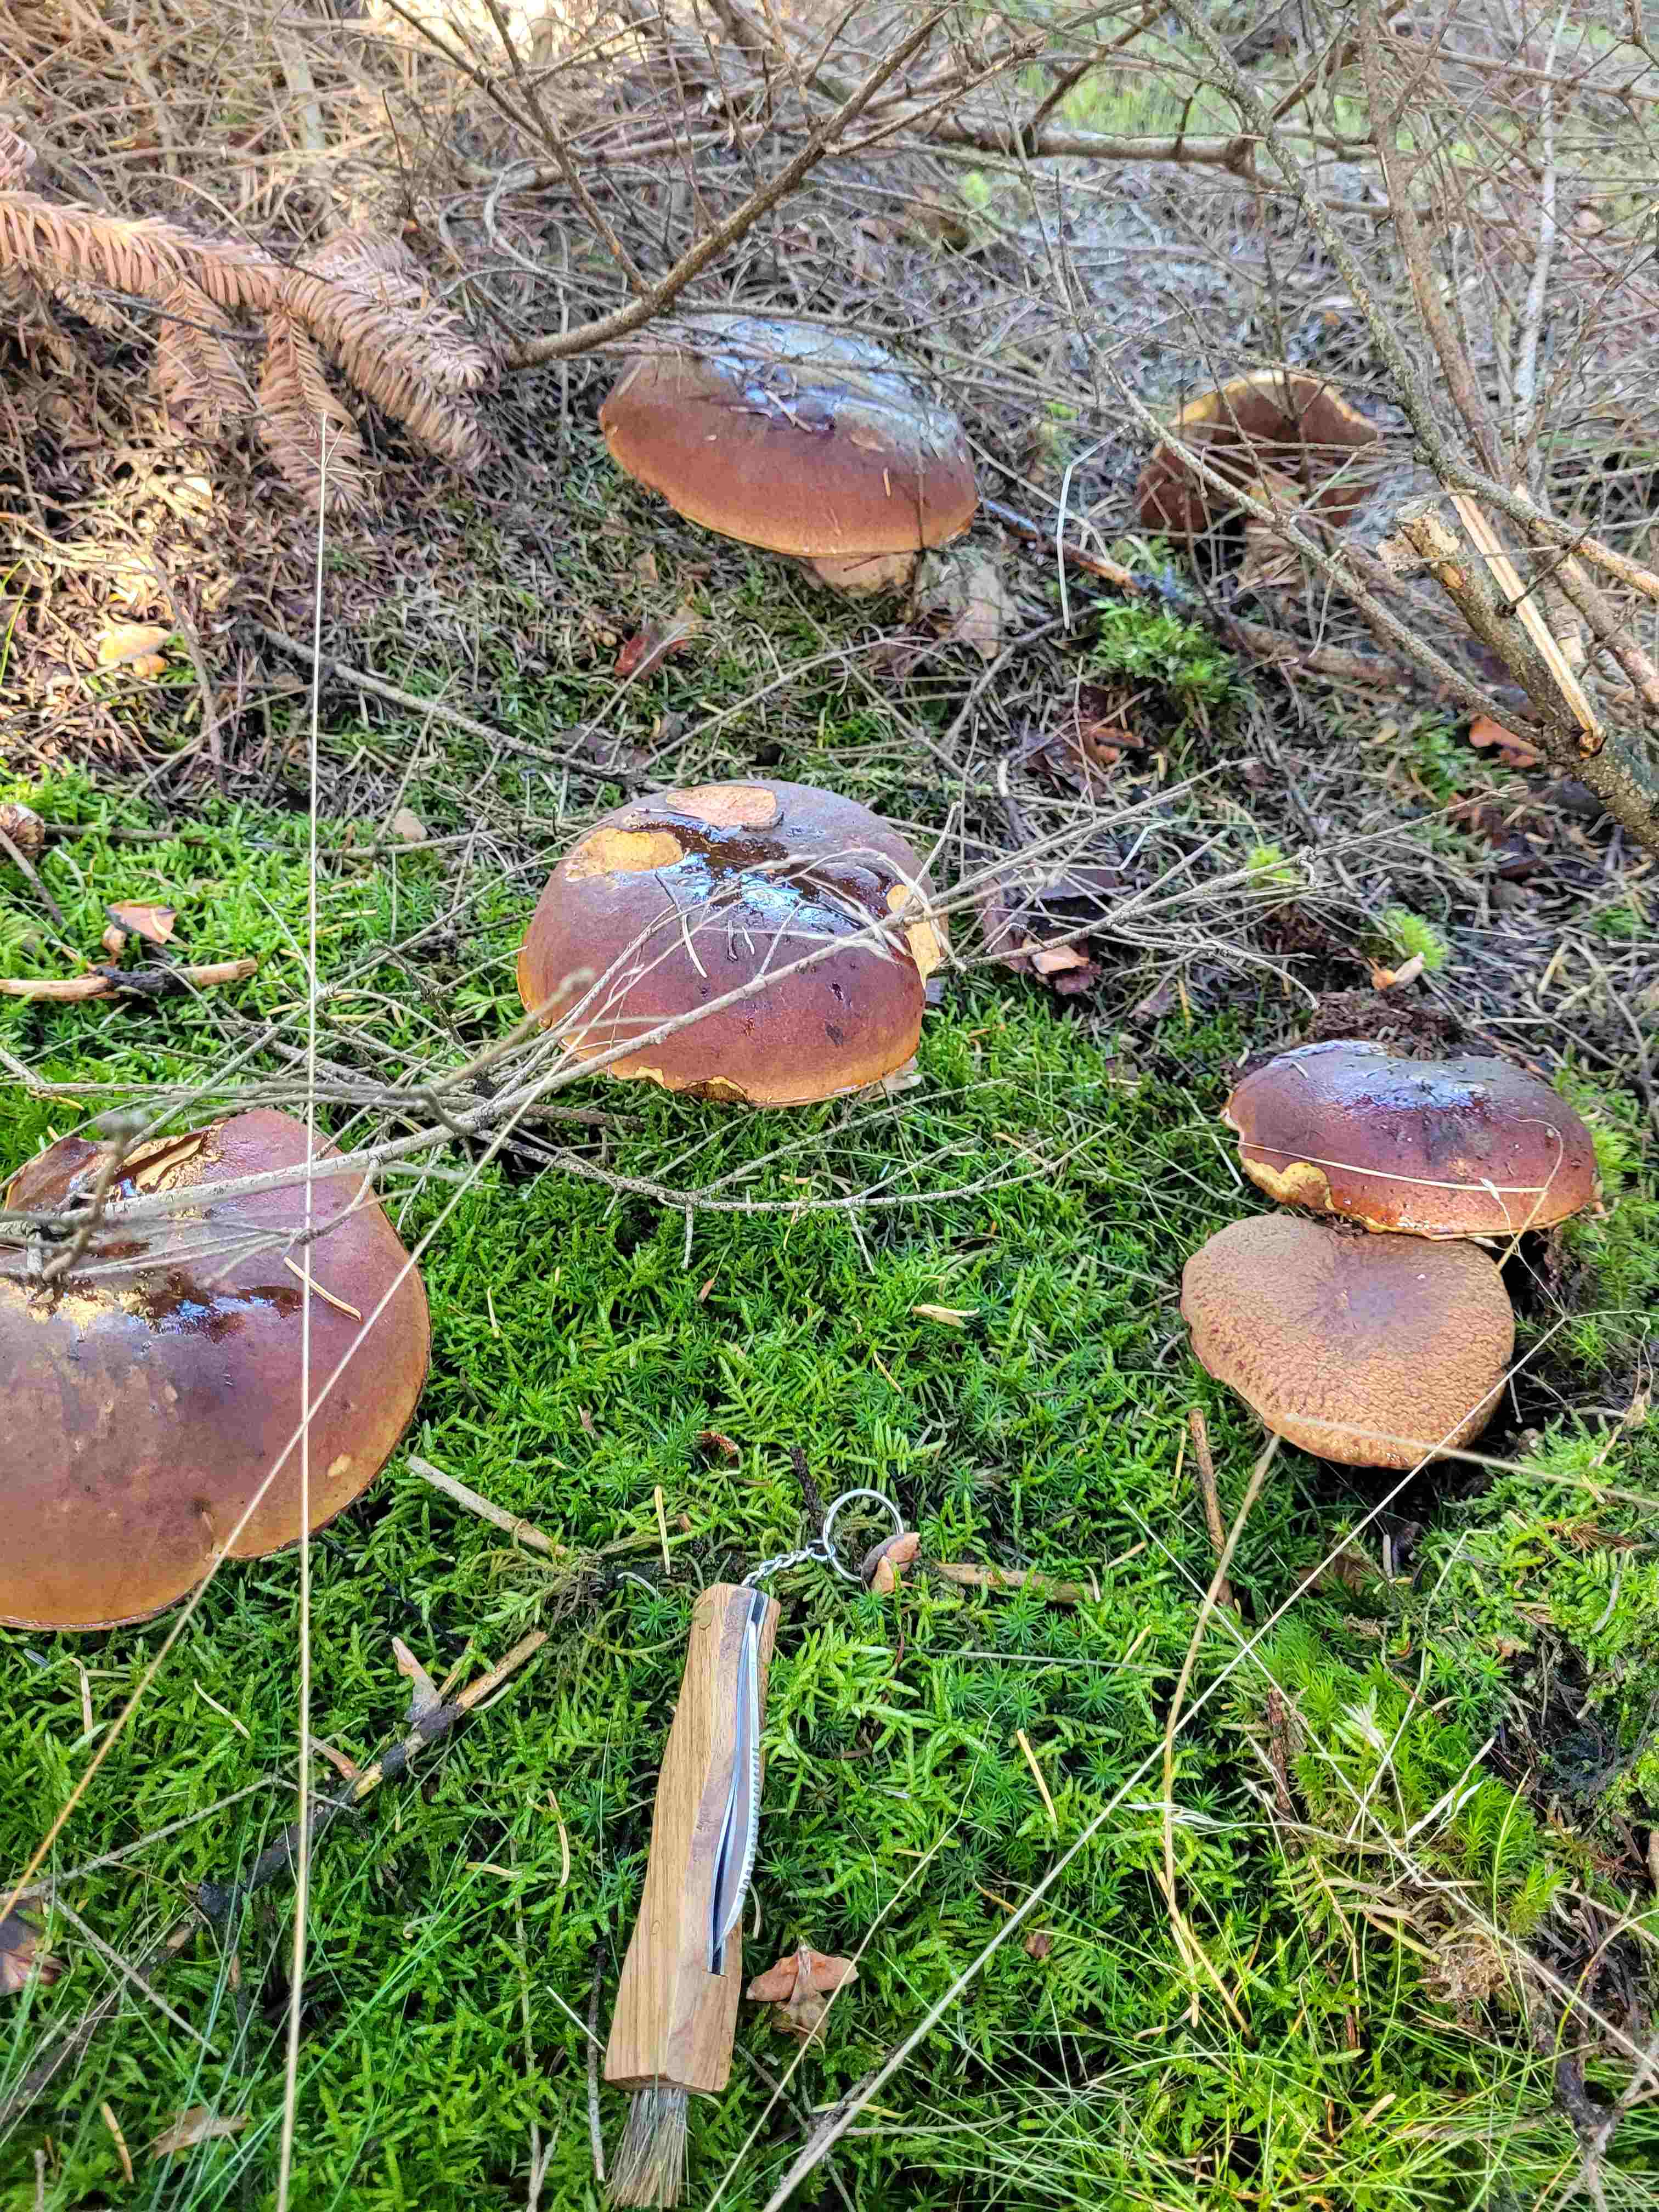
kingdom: Fungi
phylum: Basidiomycota
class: Agaricomycetes
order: Boletales
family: Boletaceae
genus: Neoboletus
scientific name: Neoboletus erythropus
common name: punktstokket indigorørhat
